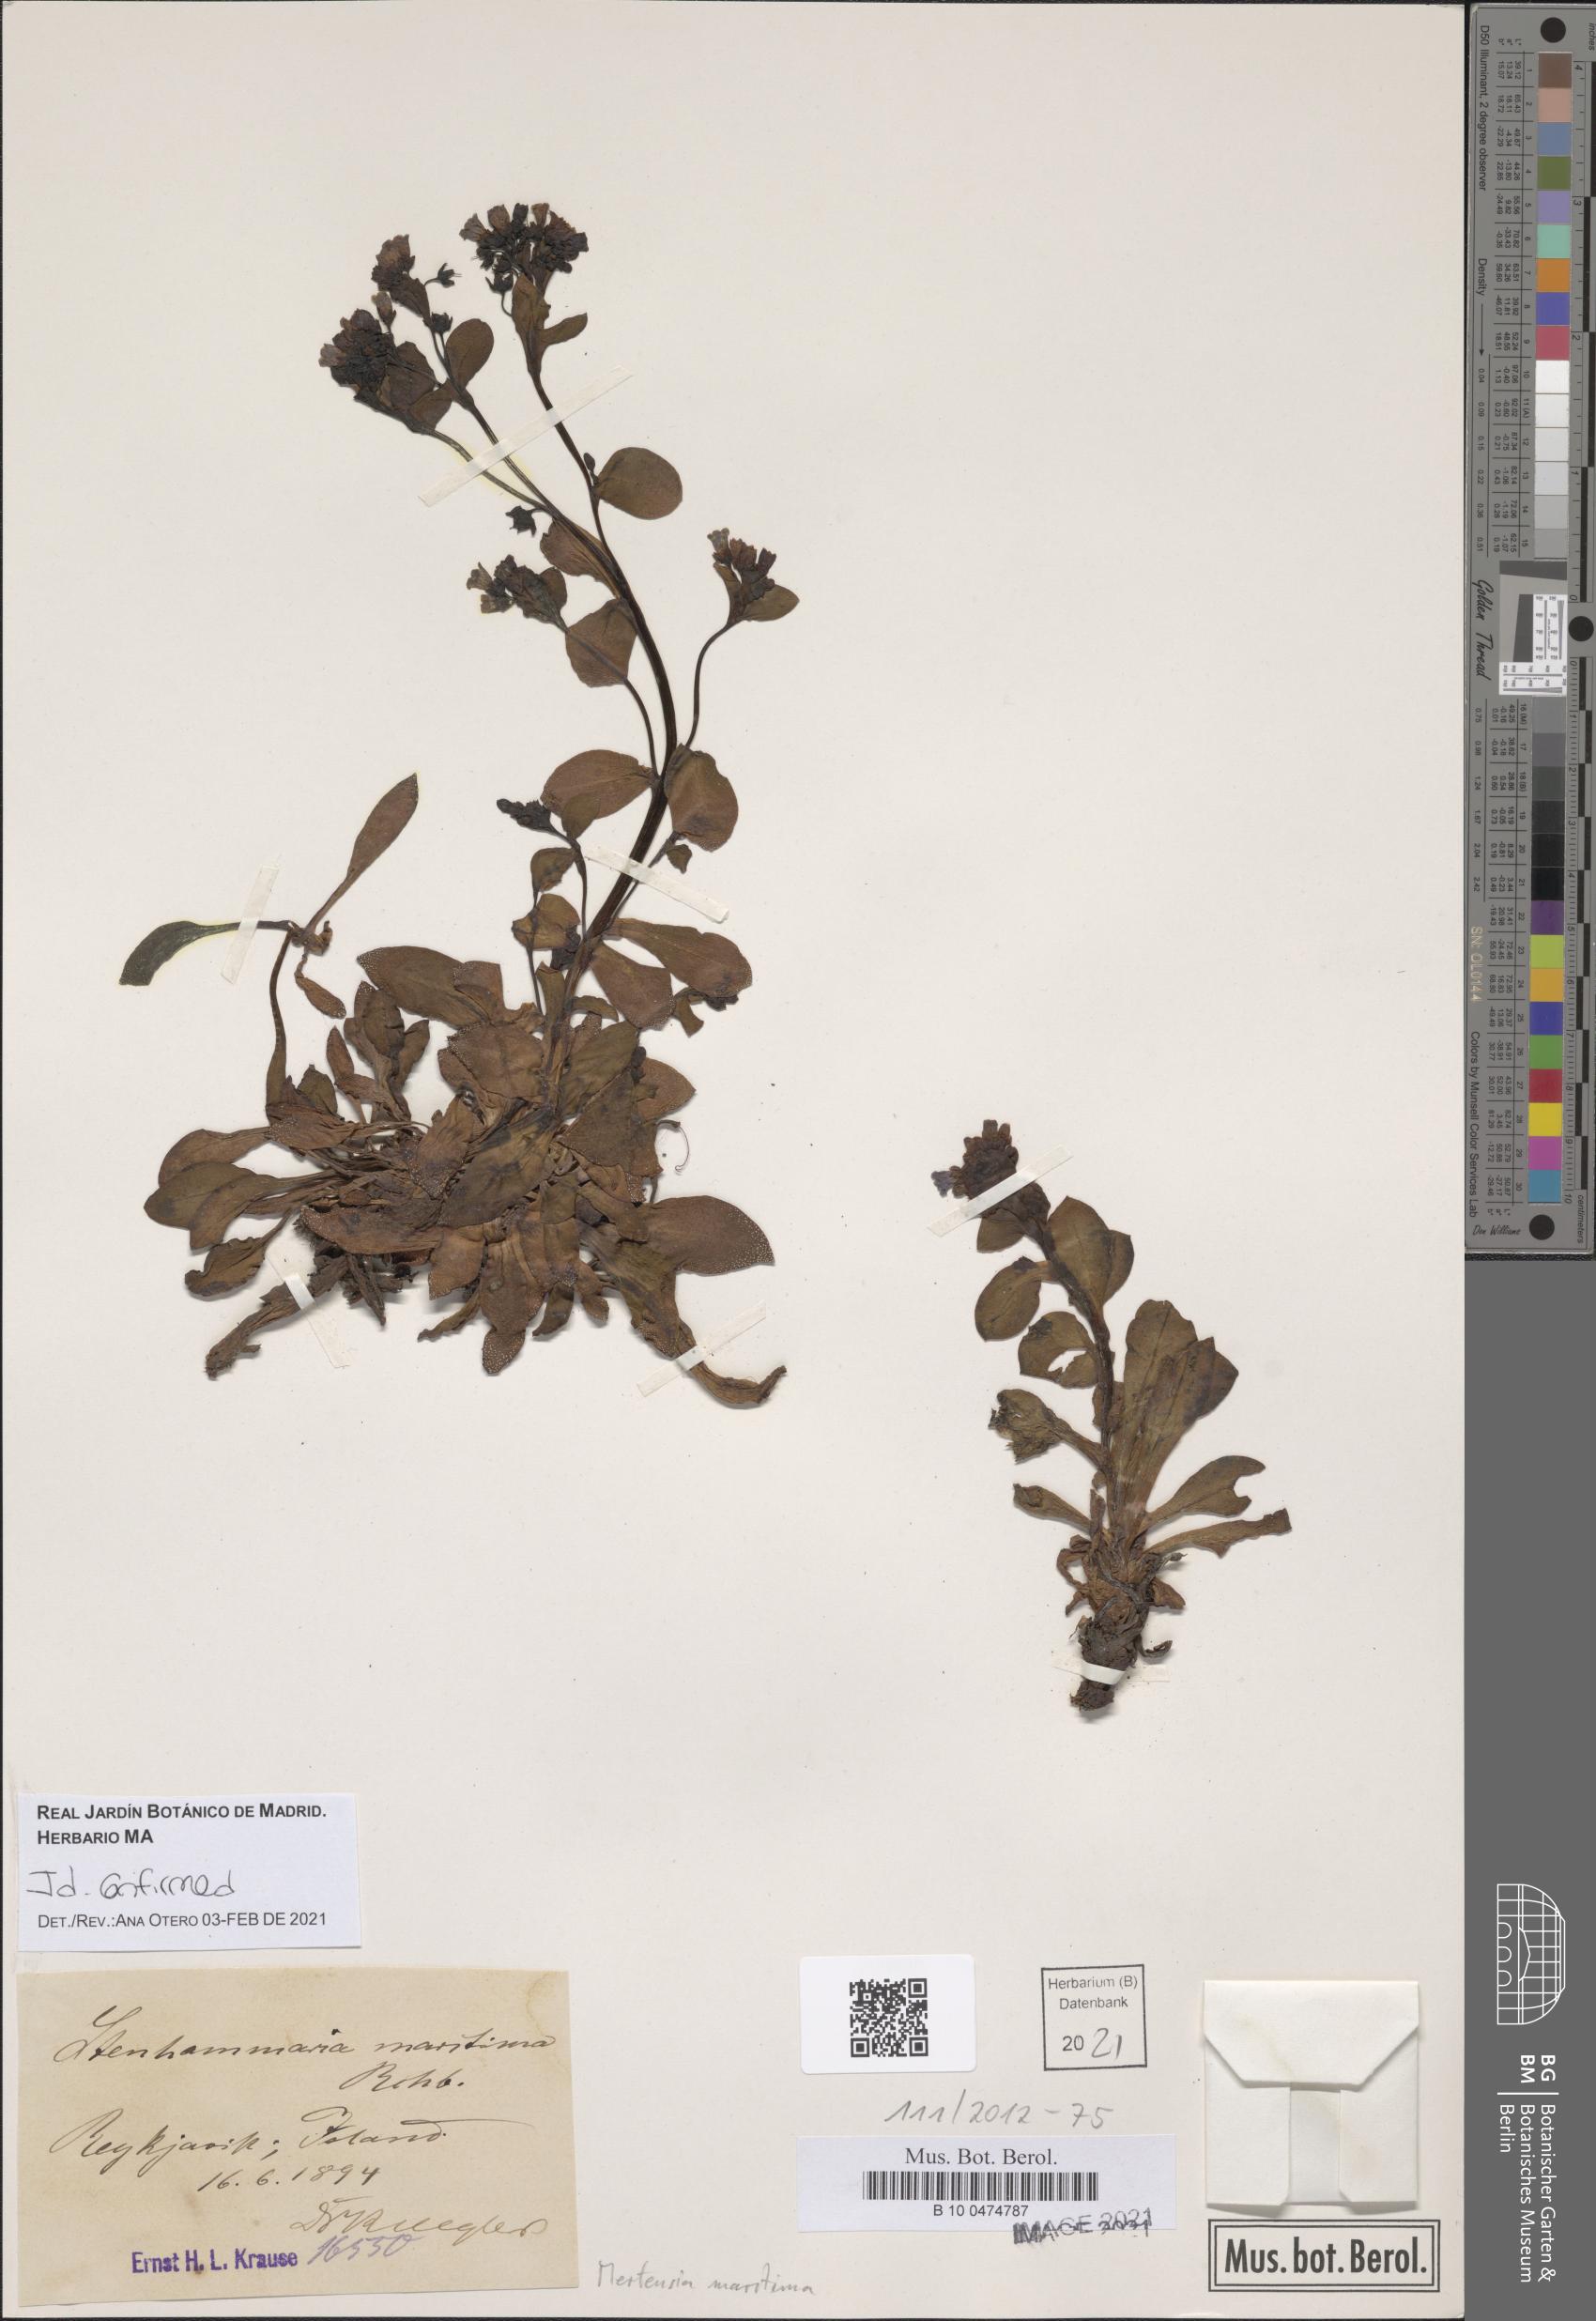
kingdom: Plantae
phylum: Tracheophyta
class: Magnoliopsida
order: Boraginales
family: Boraginaceae
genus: Mertensia
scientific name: Mertensia maritima
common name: Oysterplant
